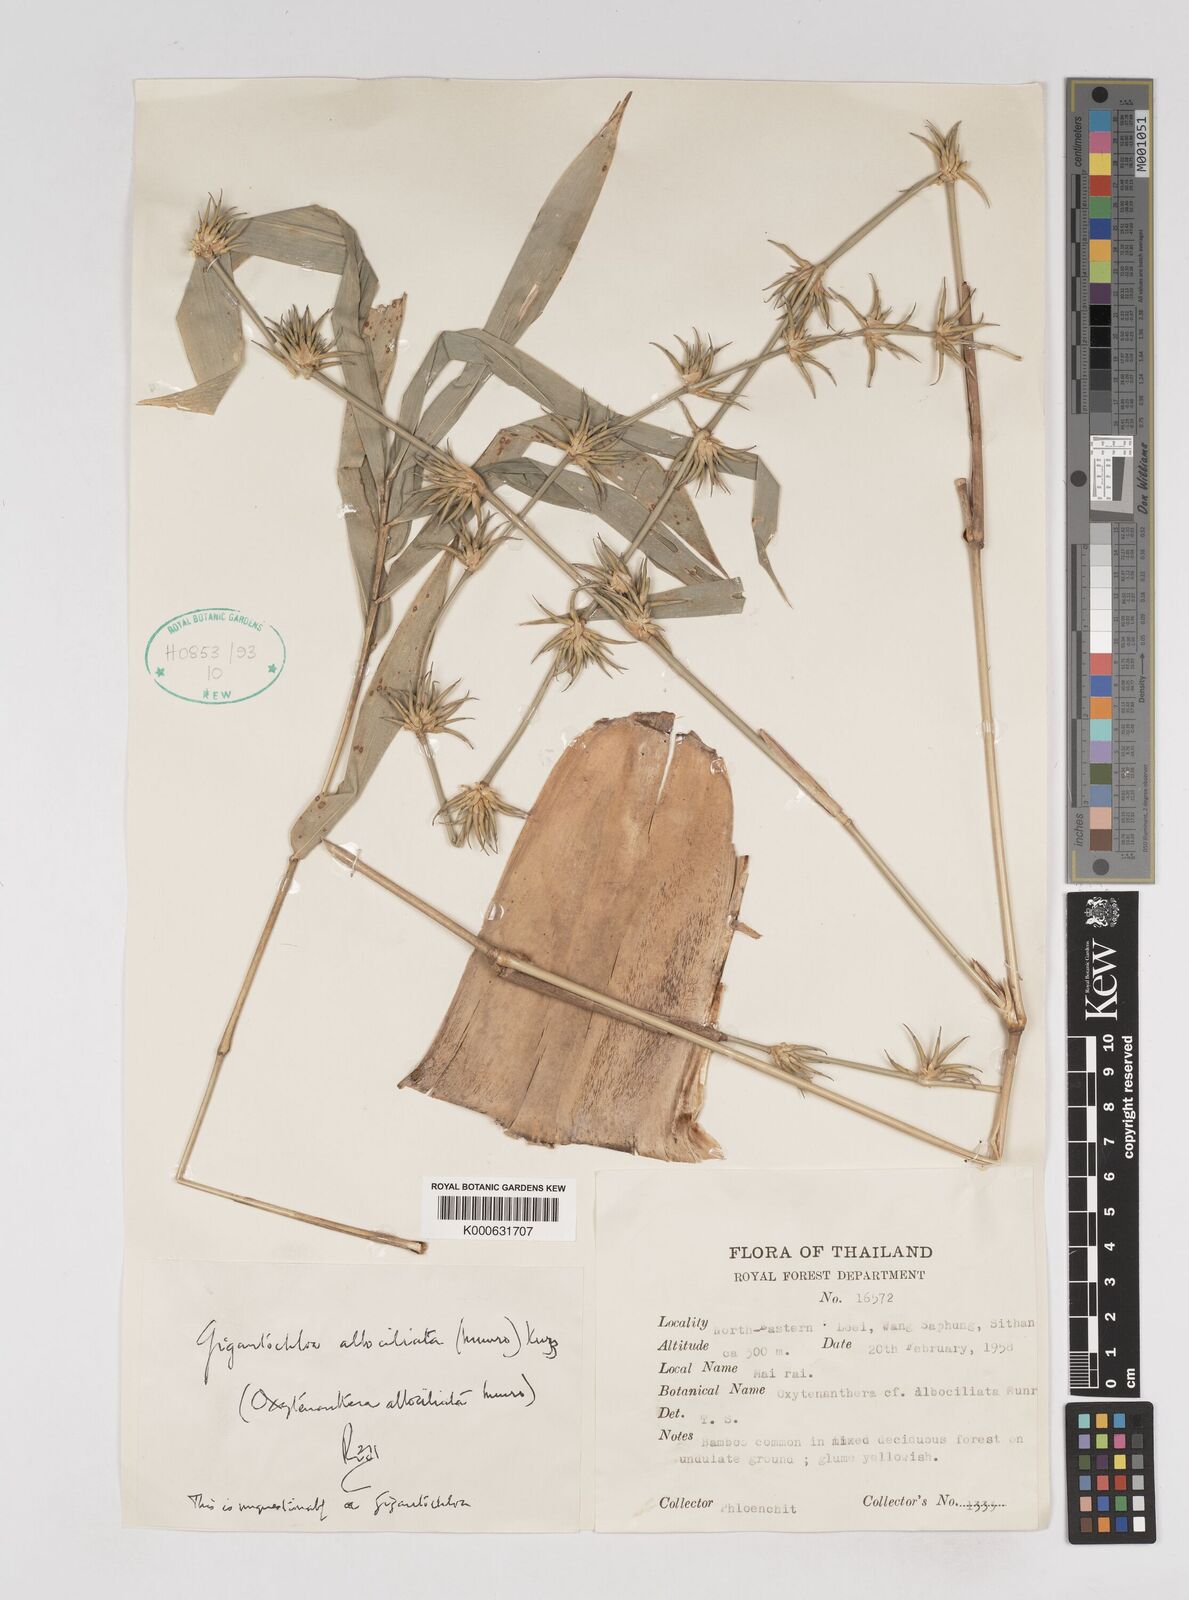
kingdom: Plantae
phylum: Tracheophyta
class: Liliopsida
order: Poales
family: Poaceae
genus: Gigantochloa
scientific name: Gigantochloa albociliata
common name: White-fringe gigantochloa
